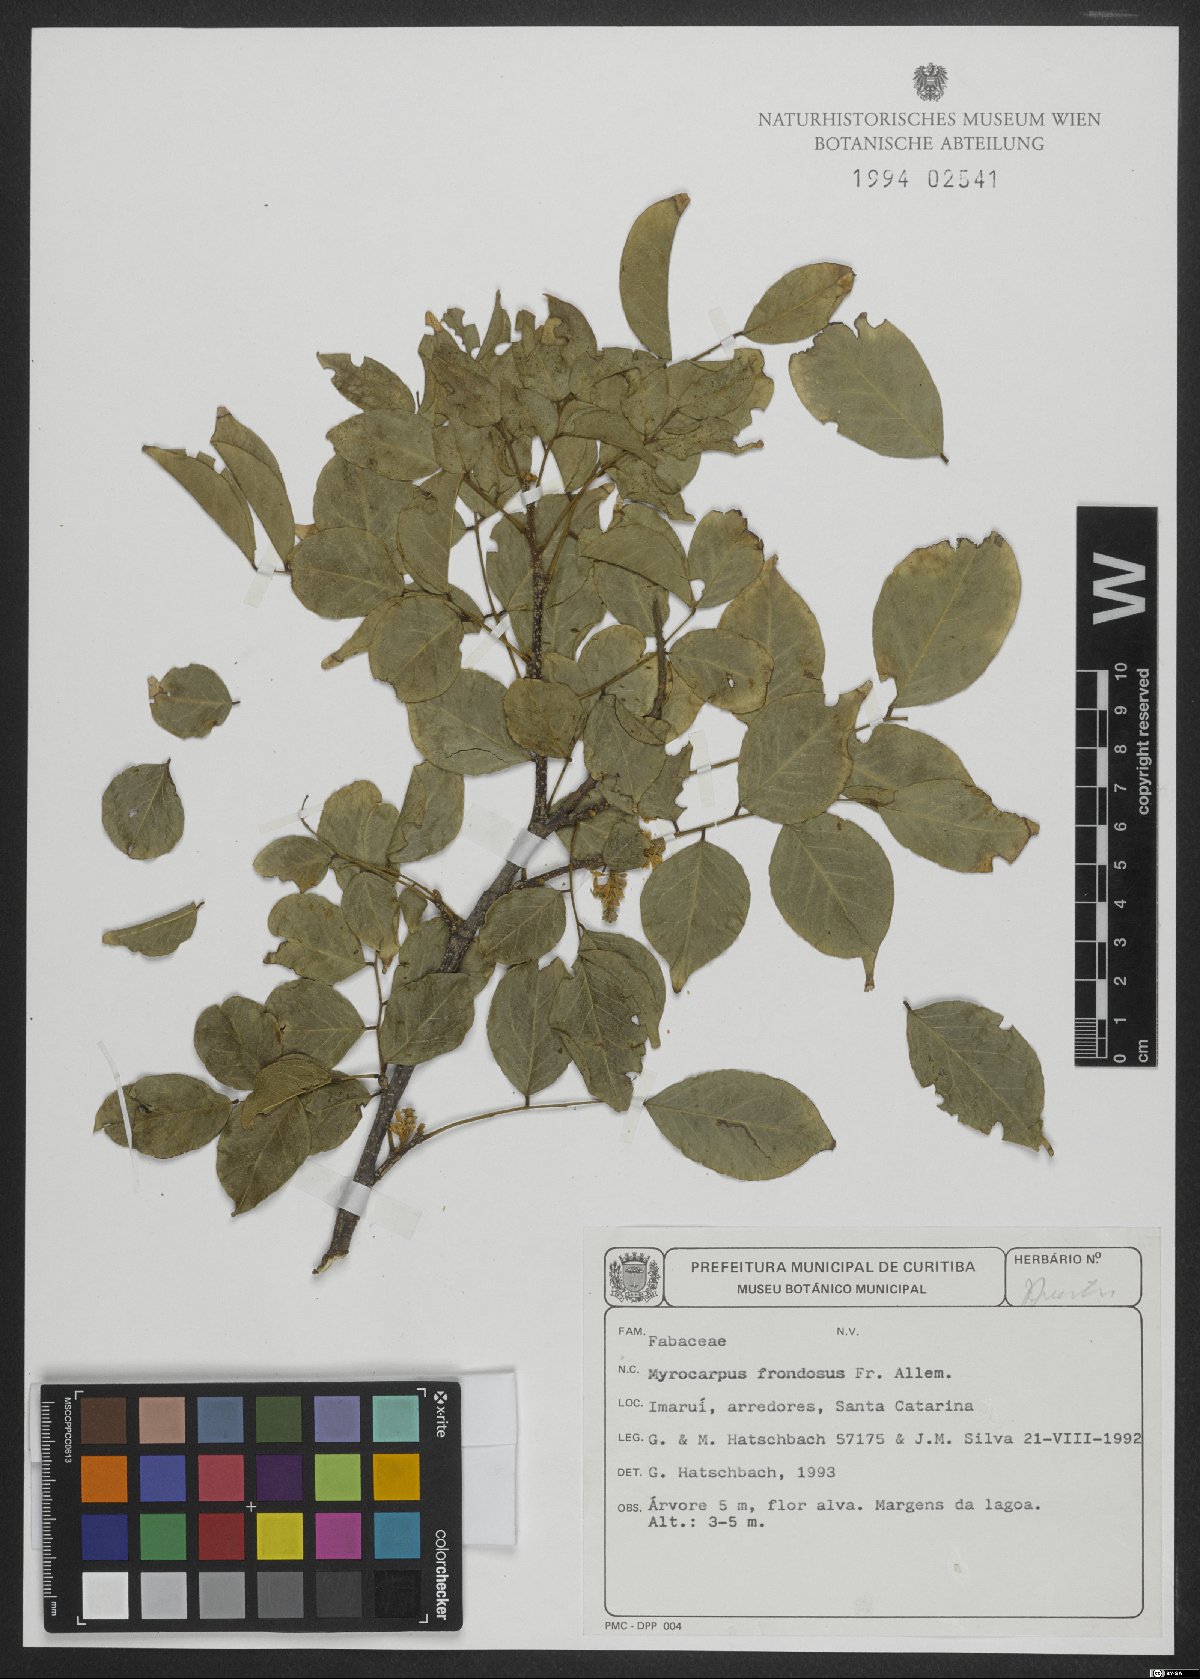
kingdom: Plantae
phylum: Tracheophyta
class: Magnoliopsida
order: Fabales
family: Fabaceae
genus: Myrocarpus
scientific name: Myrocarpus frondosus
